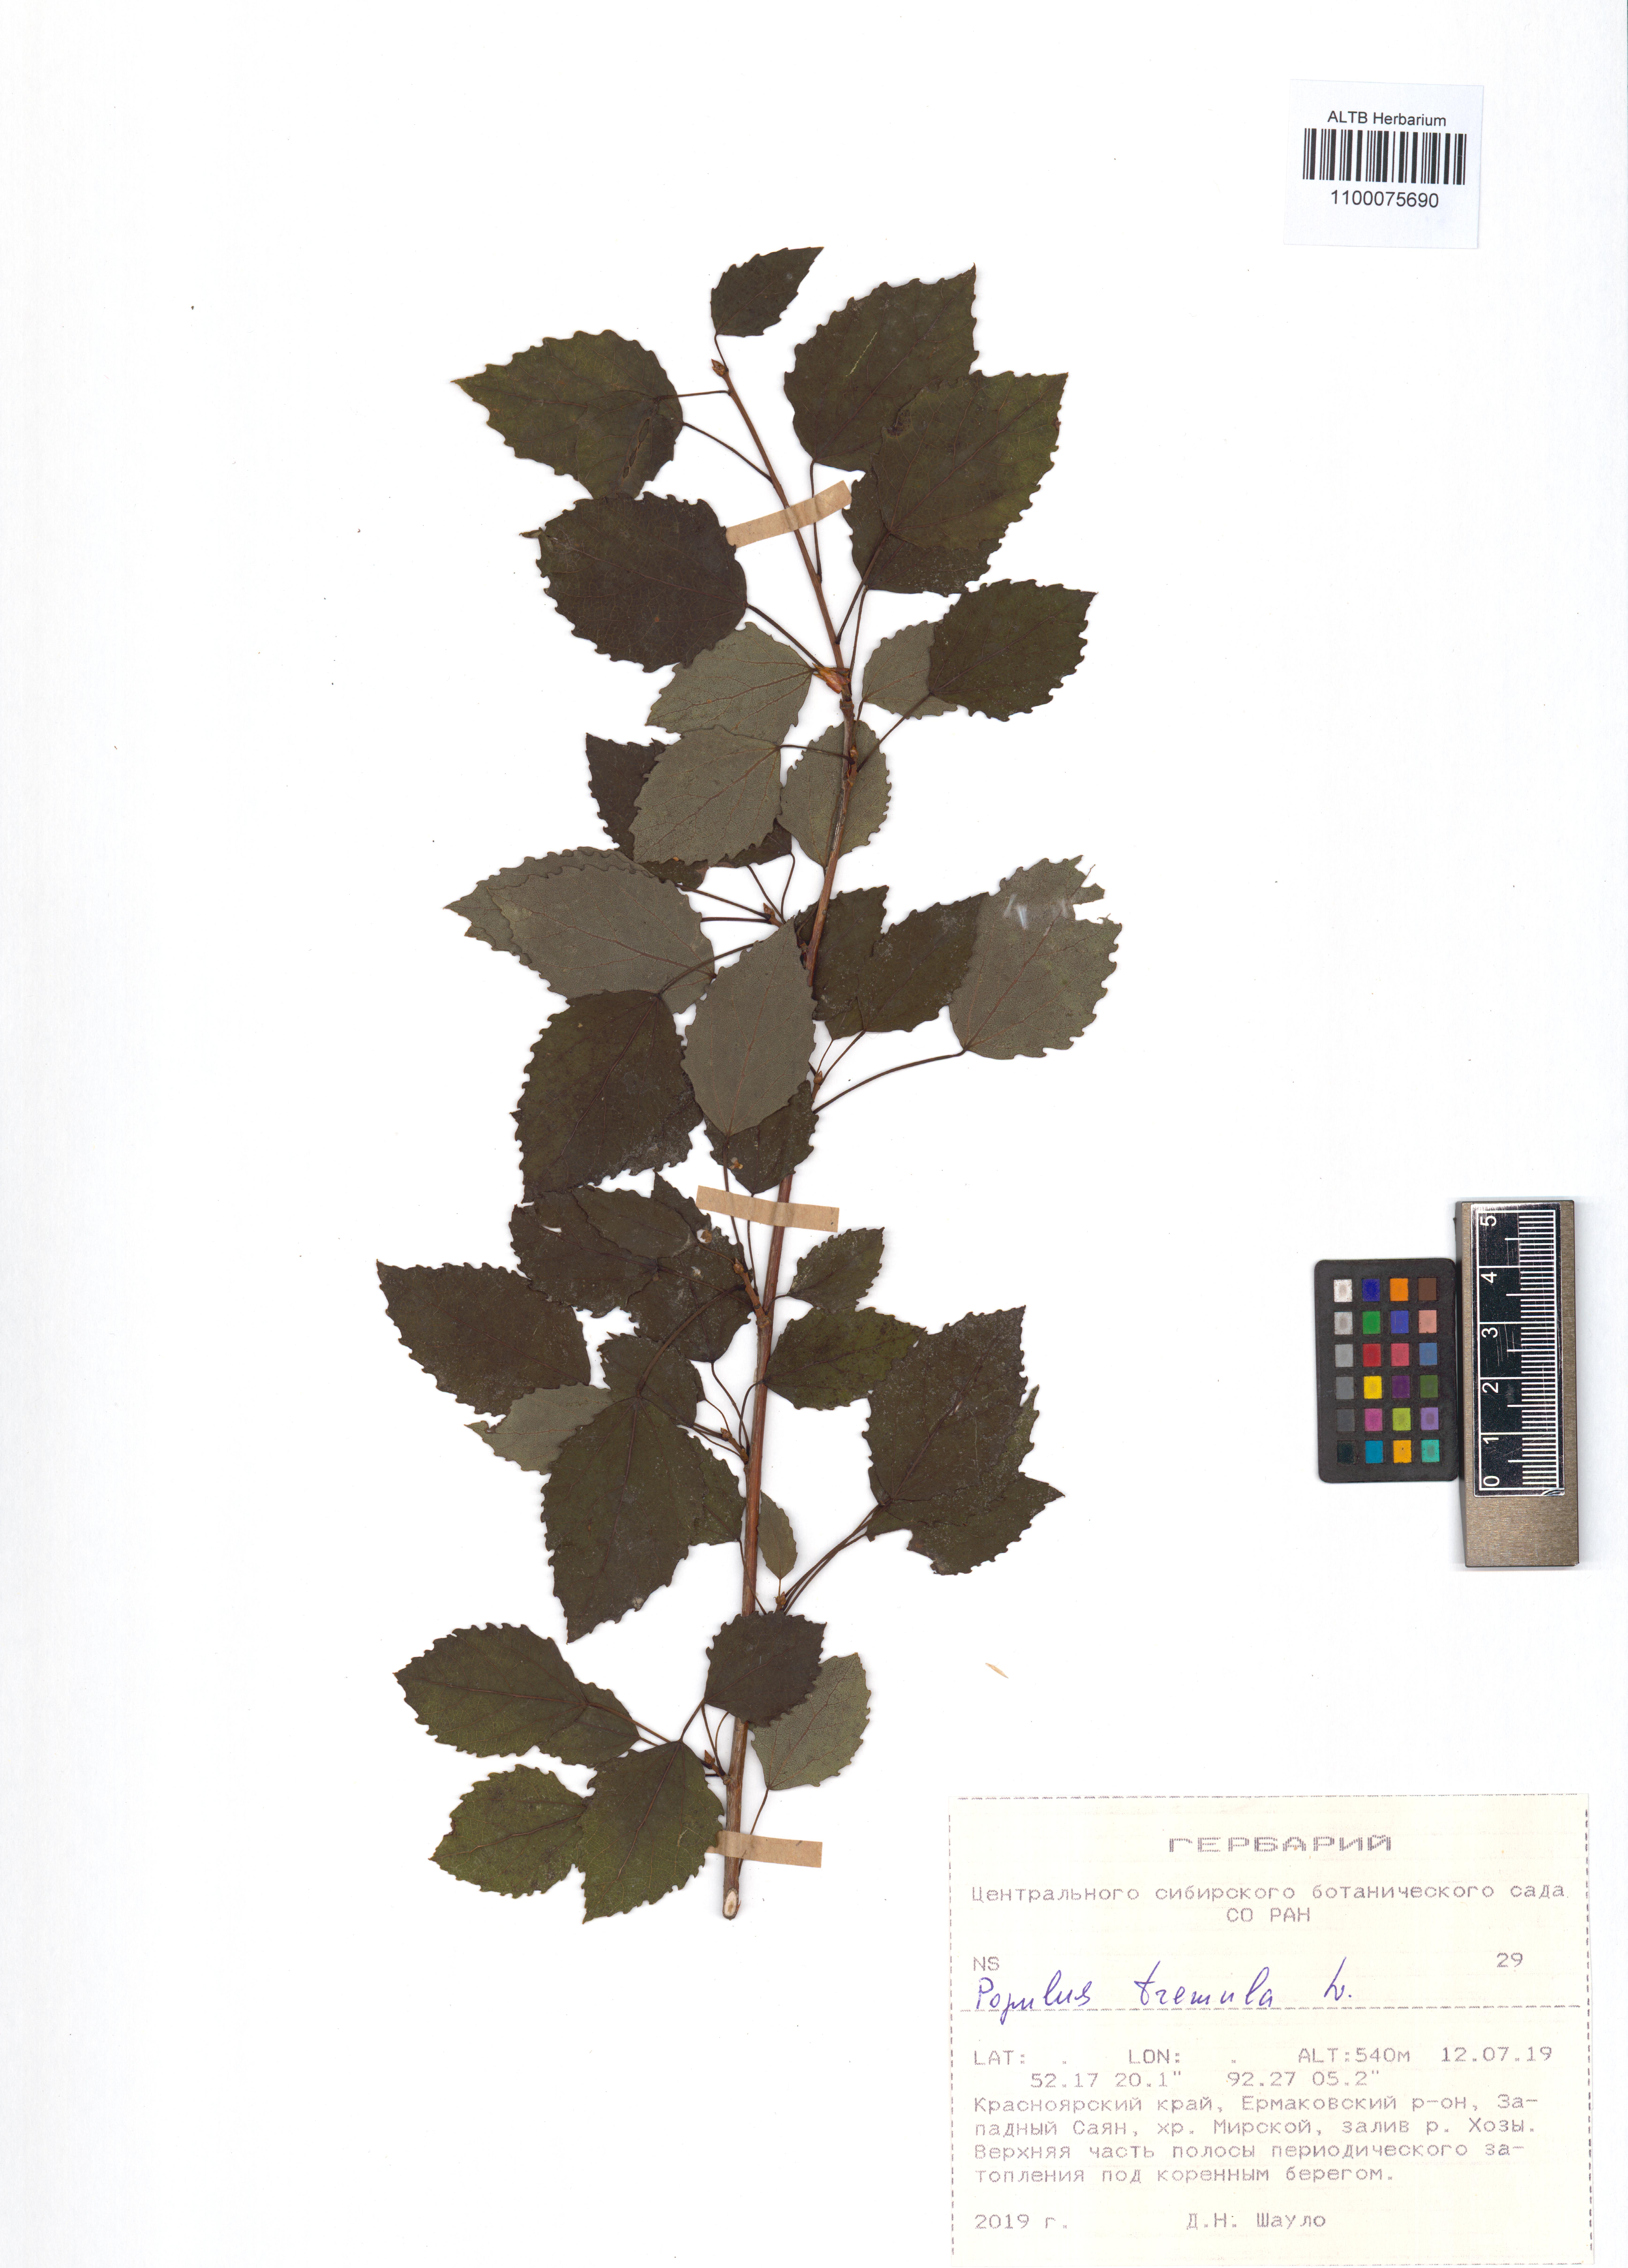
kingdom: Plantae
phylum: Tracheophyta
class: Magnoliopsida
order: Malpighiales
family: Salicaceae
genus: Populus
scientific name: Populus tremula
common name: European aspen
